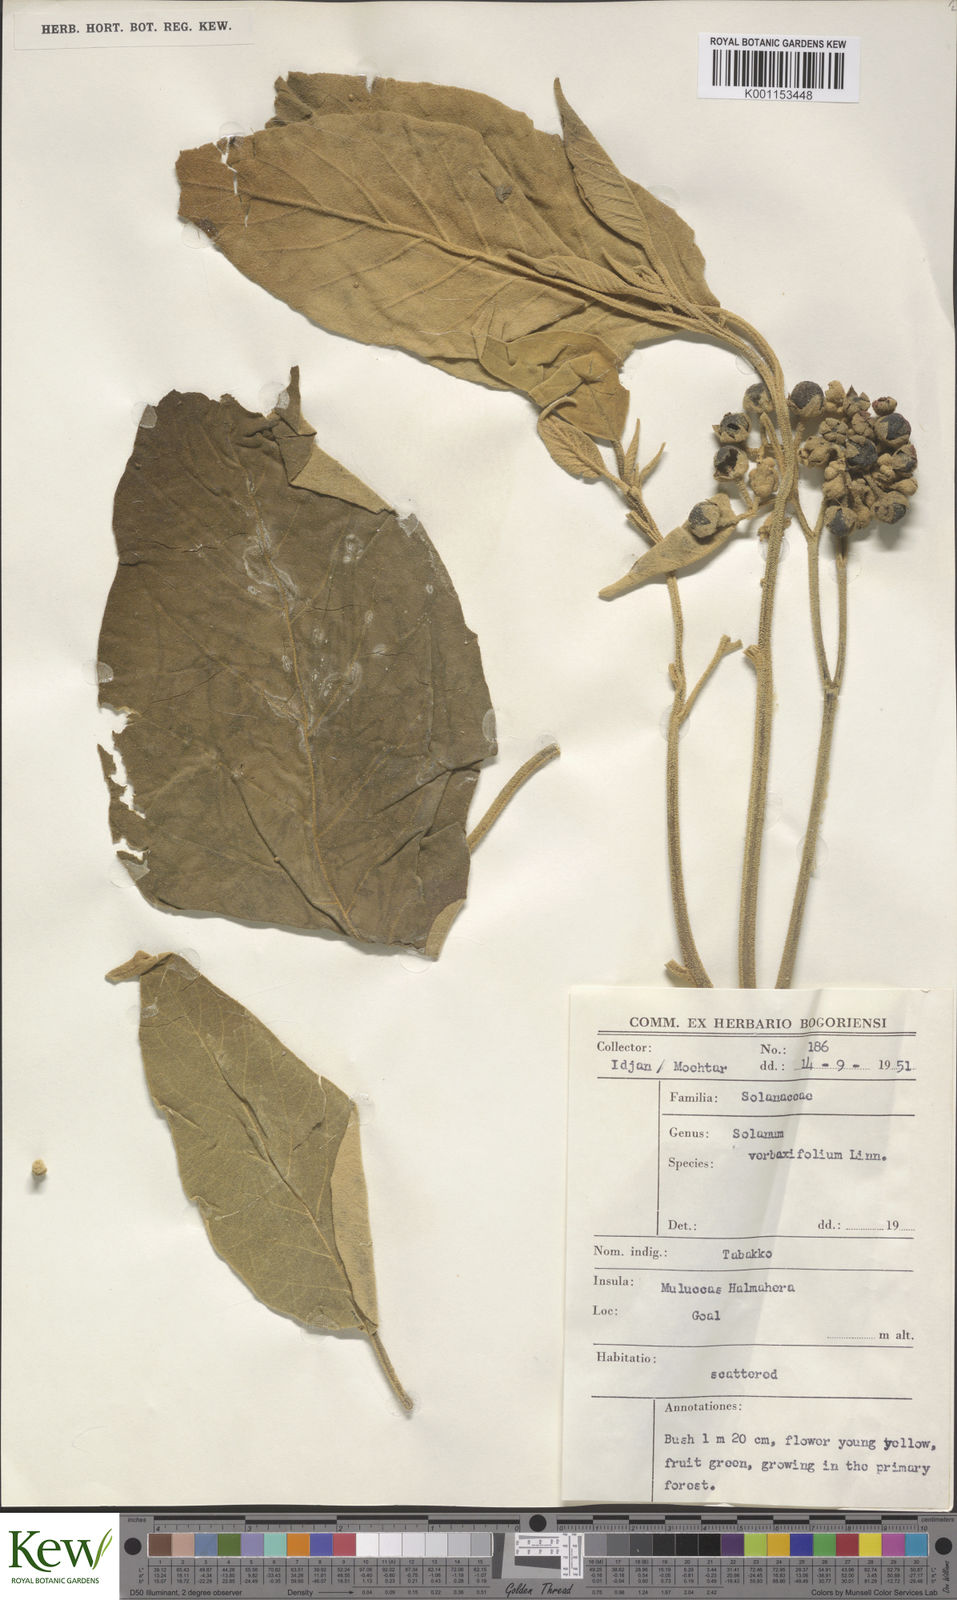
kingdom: Plantae
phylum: Tracheophyta
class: Magnoliopsida
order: Solanales
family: Solanaceae
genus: Solanum
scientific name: Solanum erianthum
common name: Tobacco-tree
